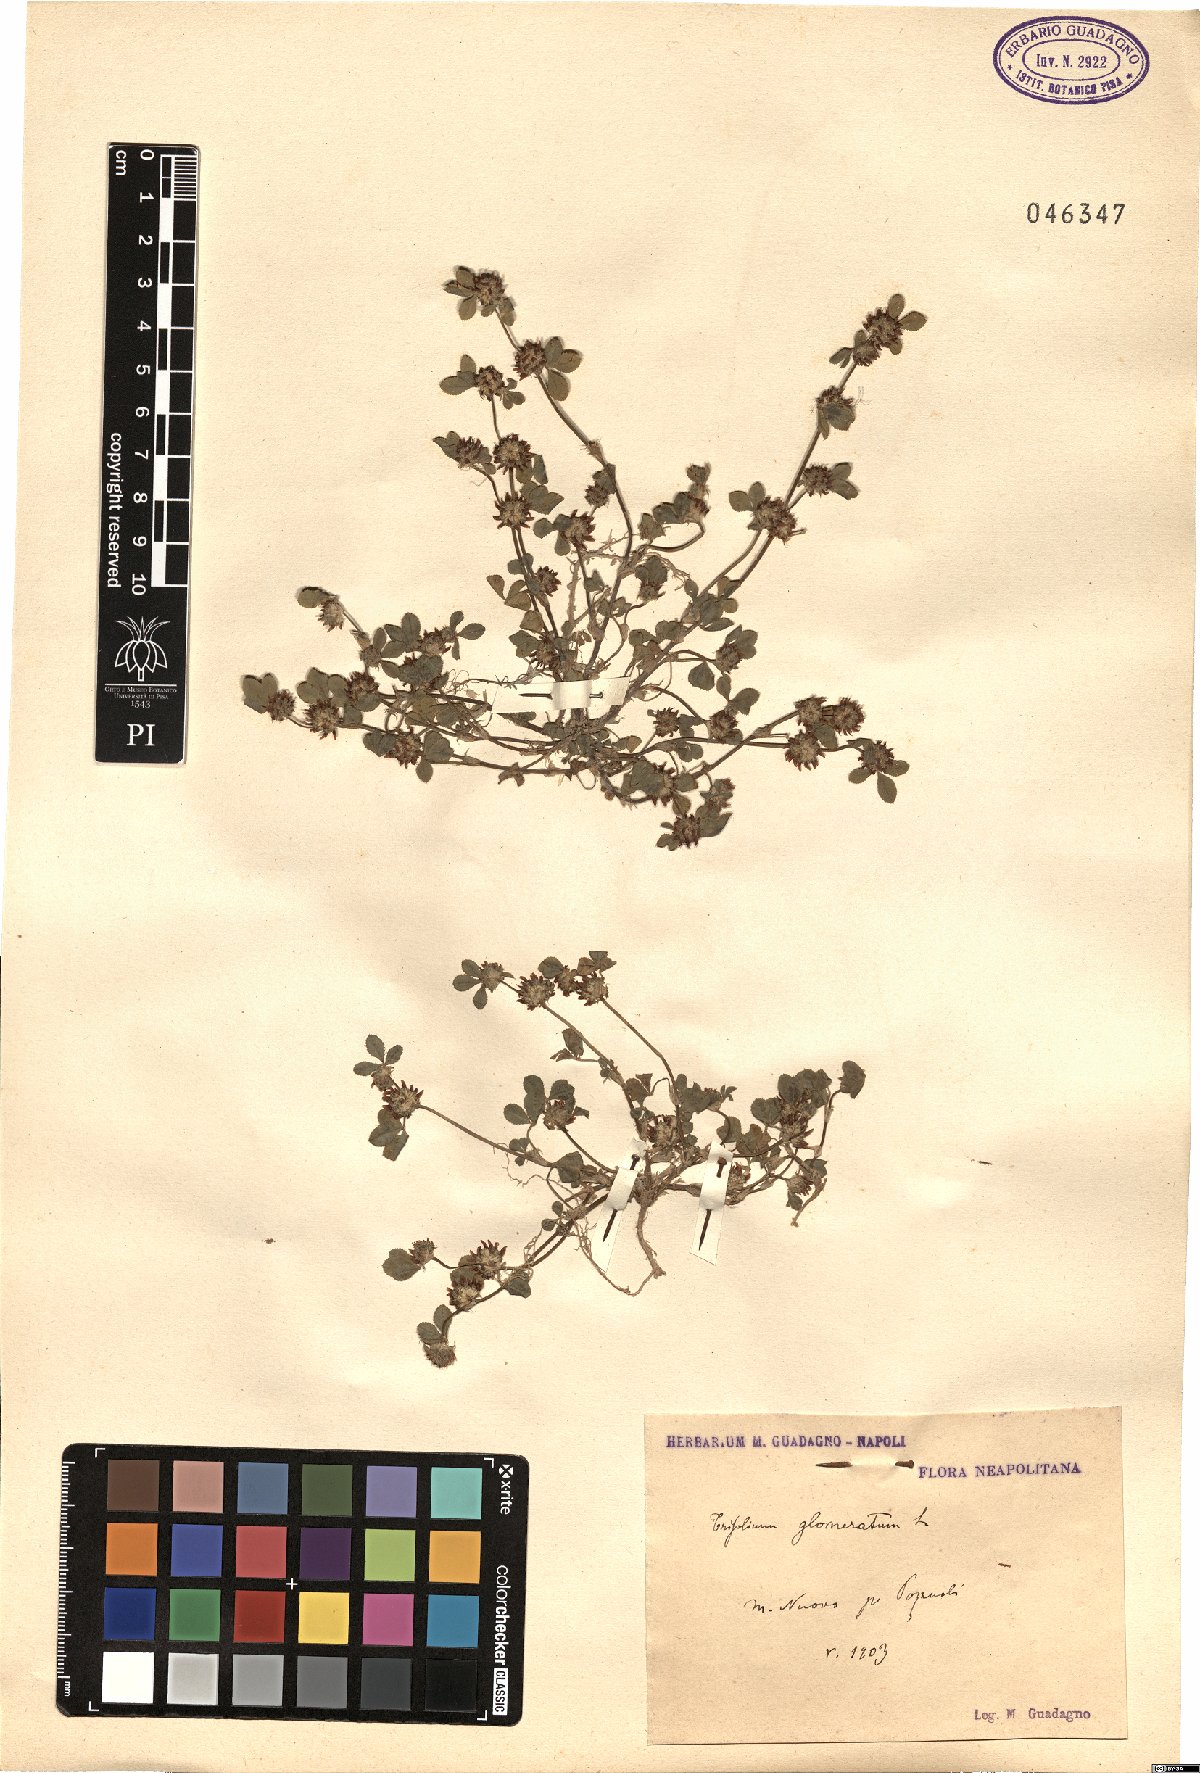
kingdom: Plantae
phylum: Tracheophyta
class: Magnoliopsida
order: Fabales
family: Fabaceae
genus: Trifolium
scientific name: Trifolium glomeratum
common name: Clustered clover
